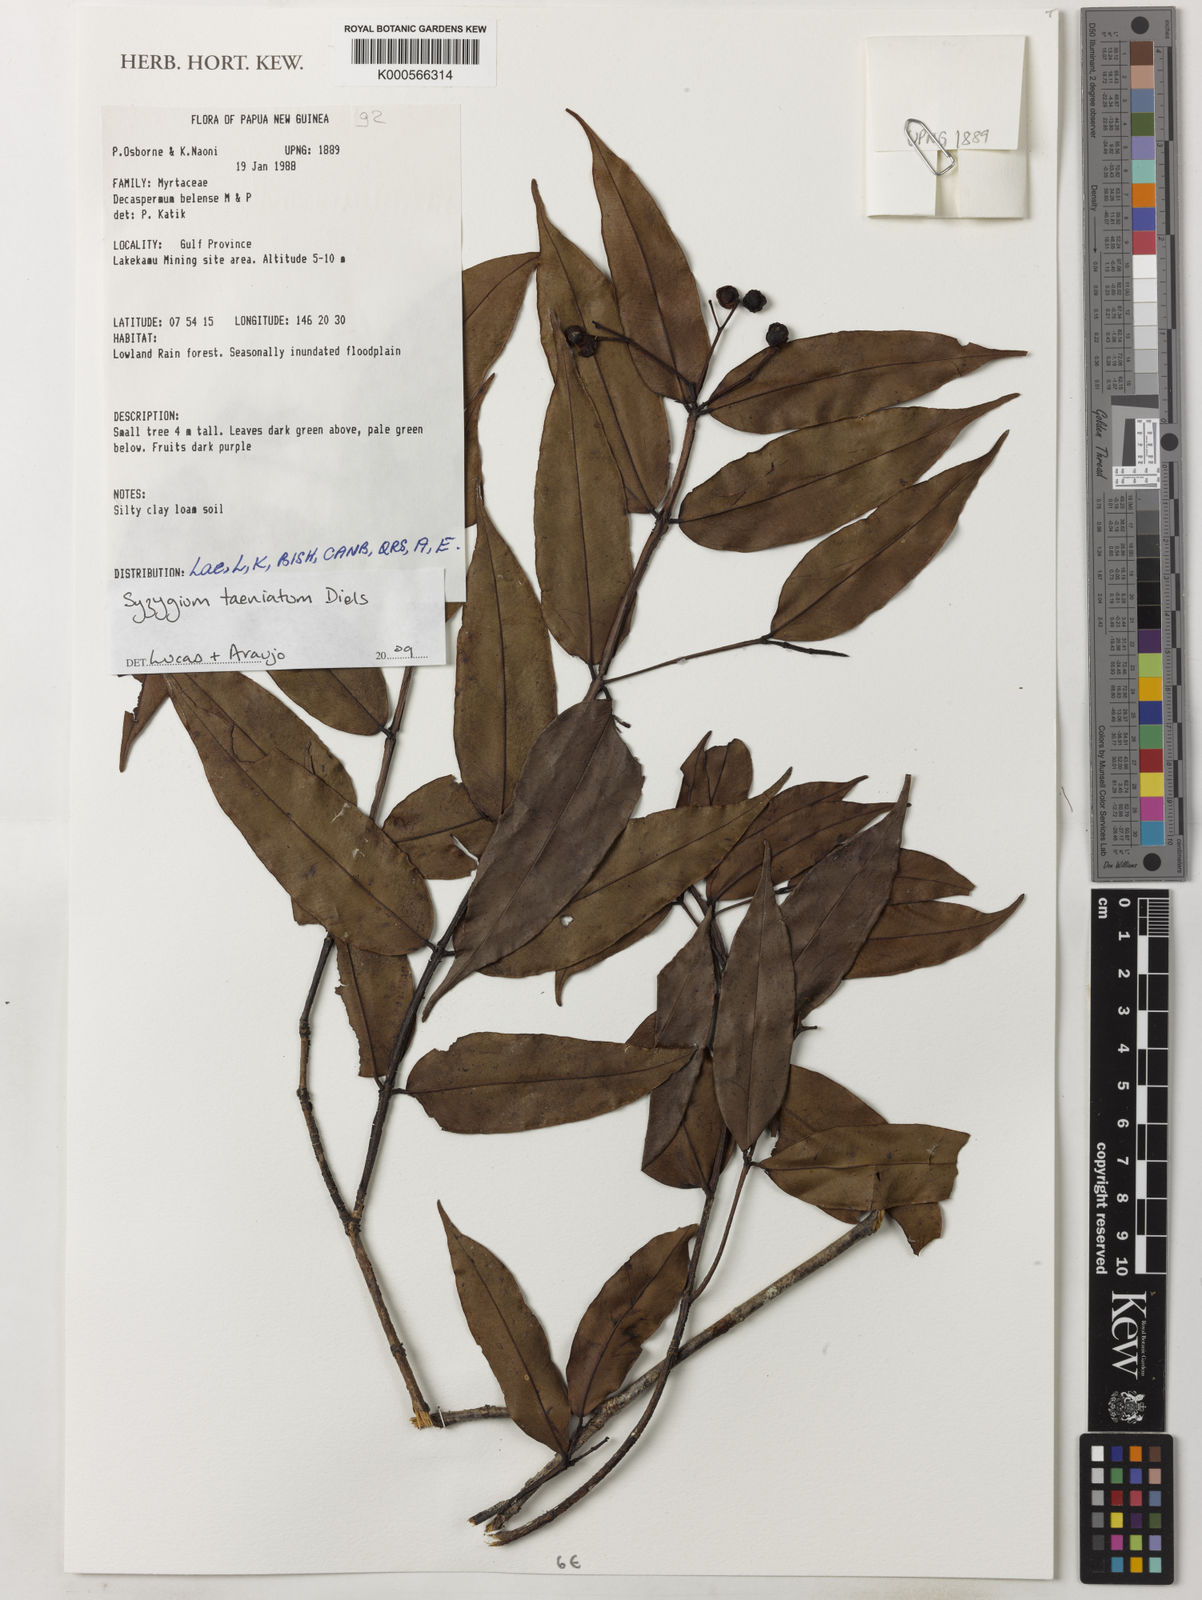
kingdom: Plantae
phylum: Tracheophyta
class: Magnoliopsida
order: Myrtales
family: Myrtaceae
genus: Syzygium
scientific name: Syzygium taeniatum
